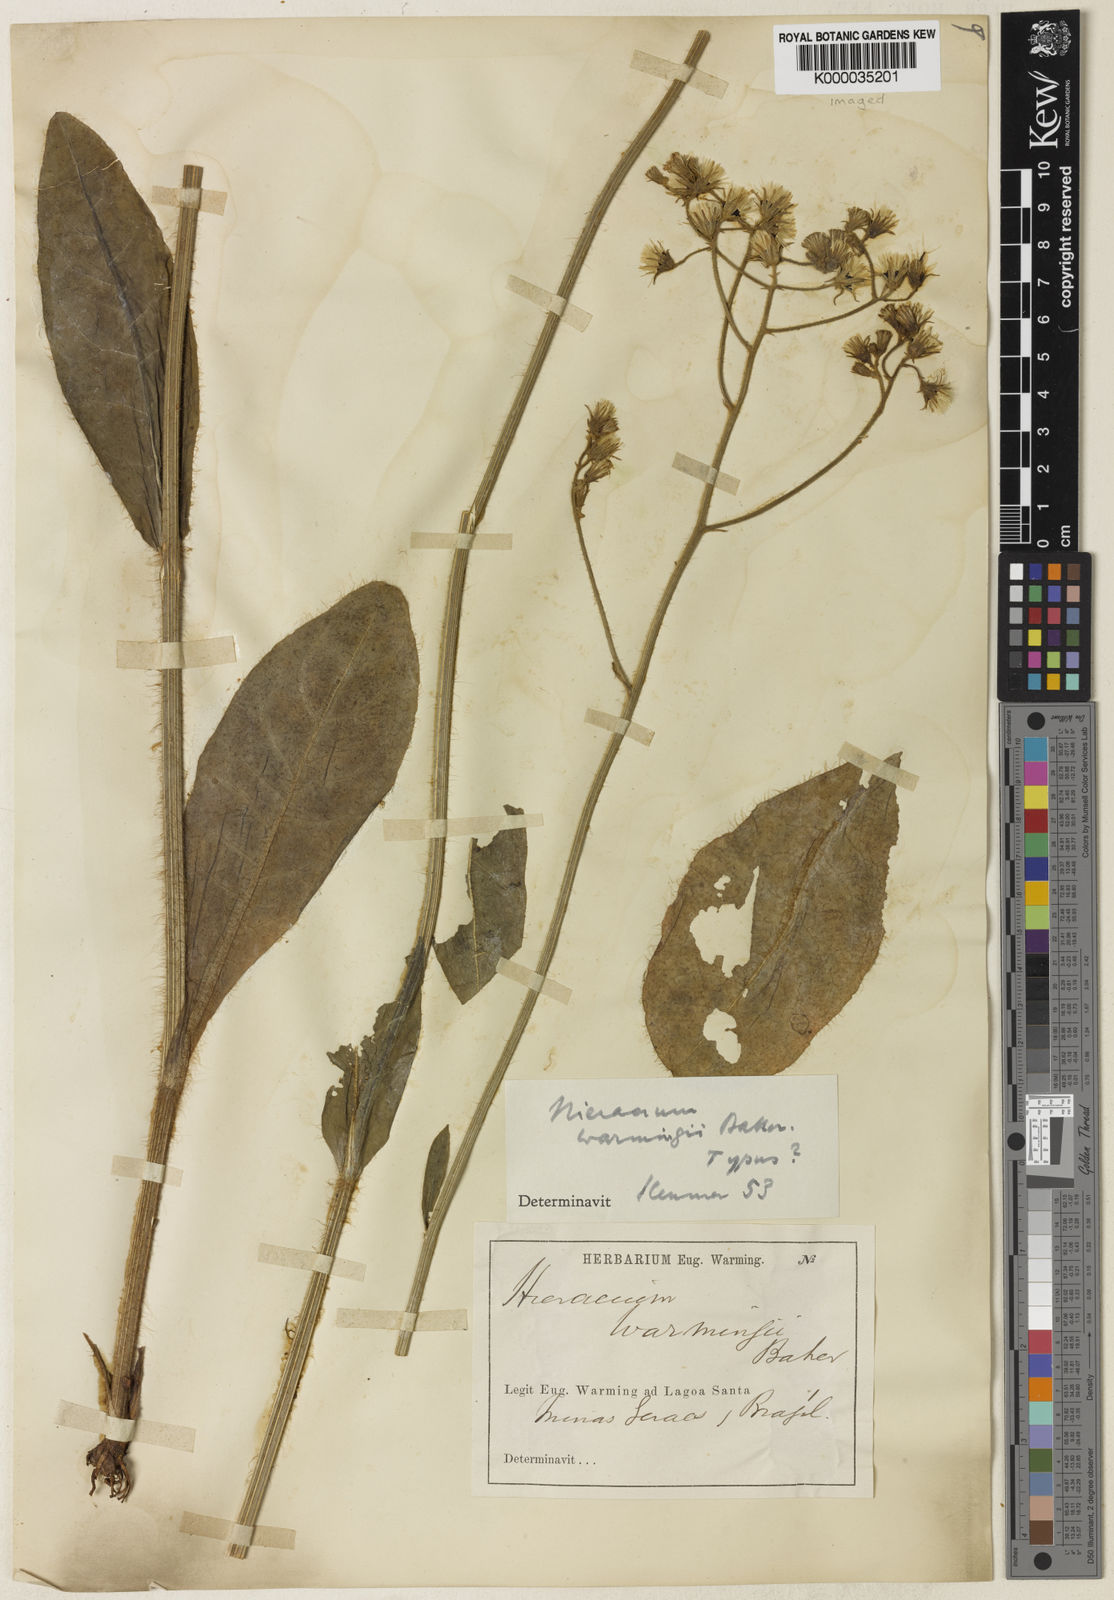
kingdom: Plantae
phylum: Tracheophyta
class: Magnoliopsida
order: Asterales
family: Asteraceae
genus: Hieracium
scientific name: Hieracium warmingii
